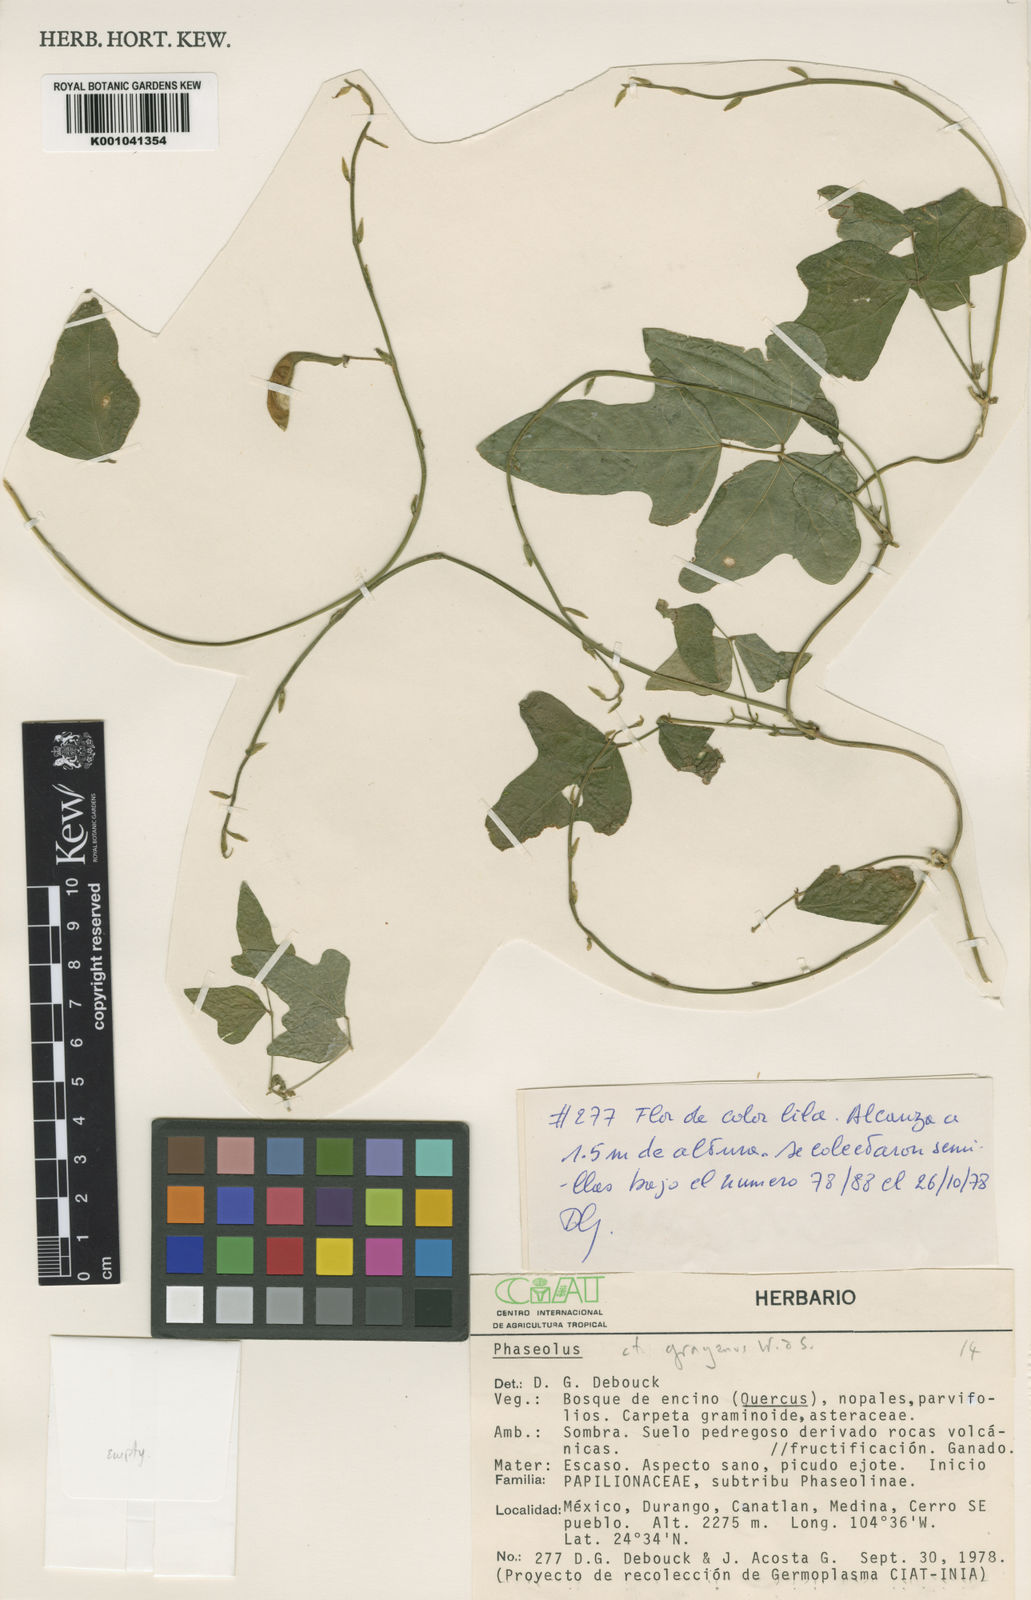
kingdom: Plantae
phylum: Tracheophyta
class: Magnoliopsida
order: Fabales
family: Fabaceae
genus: Phaseolus
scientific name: Phaseolus pedicellatus
